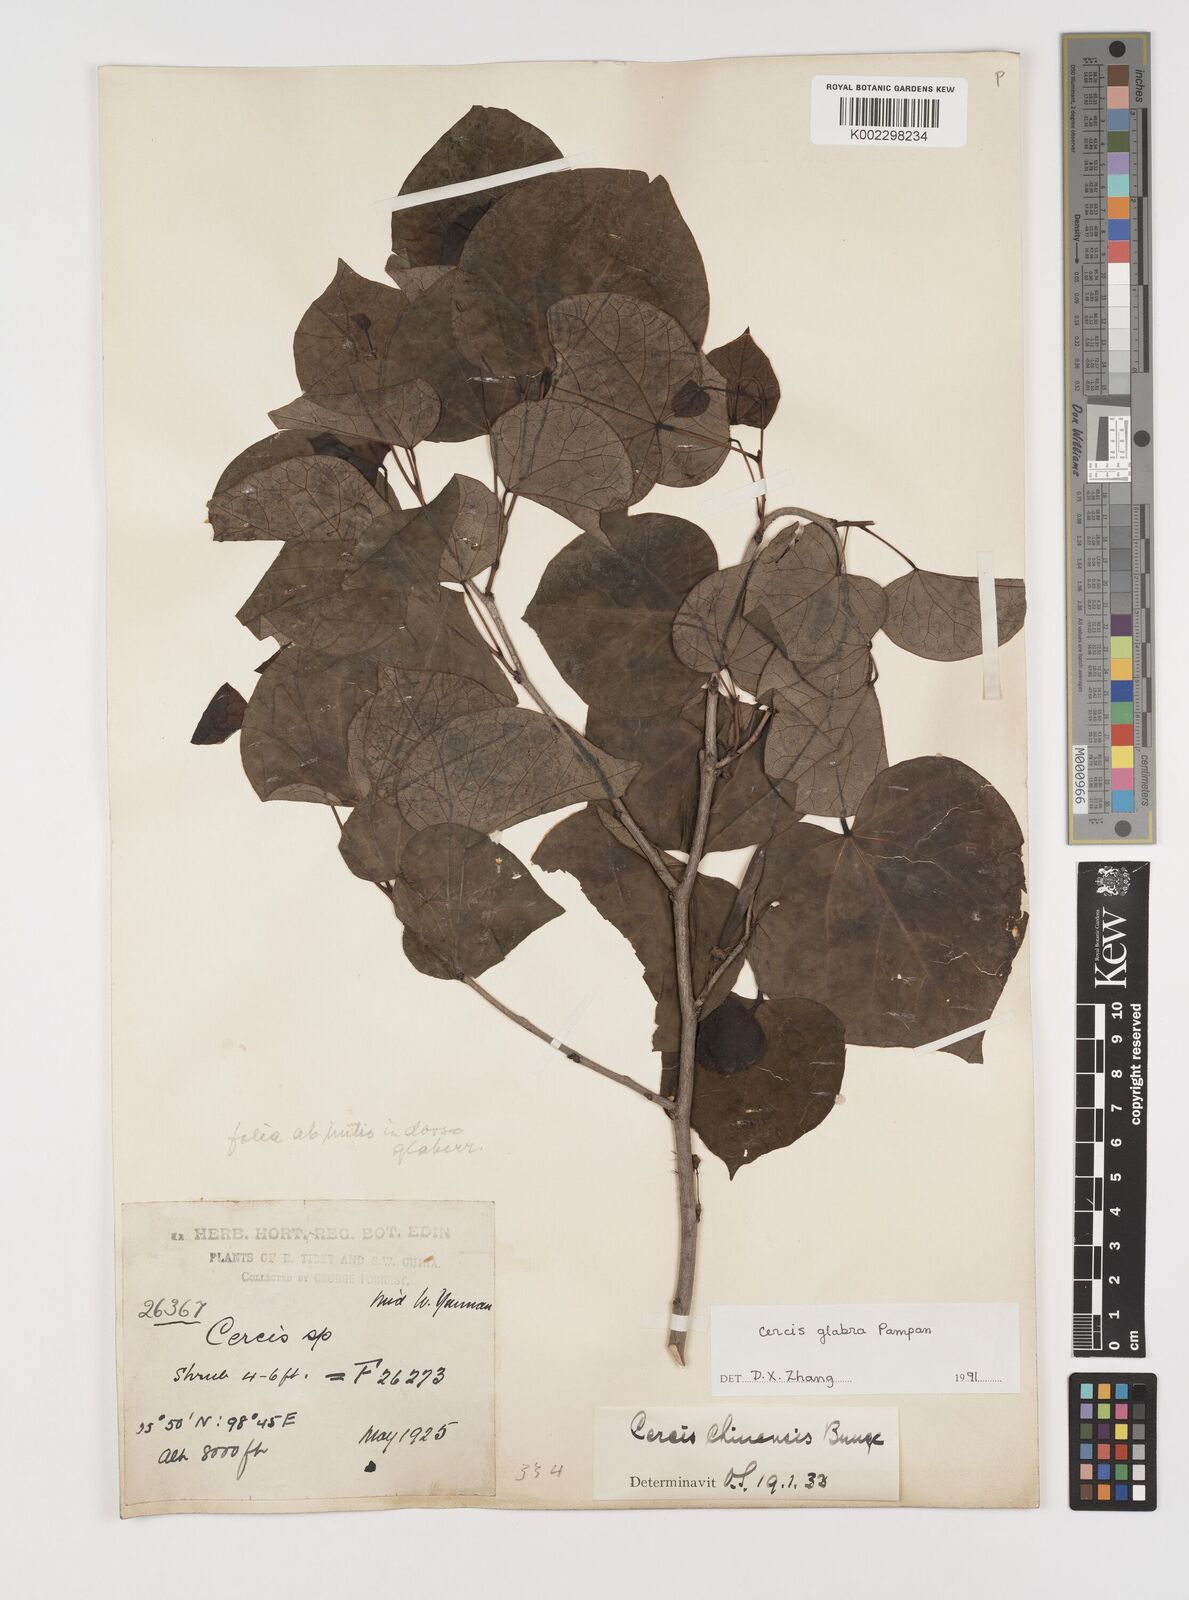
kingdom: Plantae
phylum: Tracheophyta
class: Magnoliopsida
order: Fabales
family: Fabaceae
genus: Cercis
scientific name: Cercis glabra
